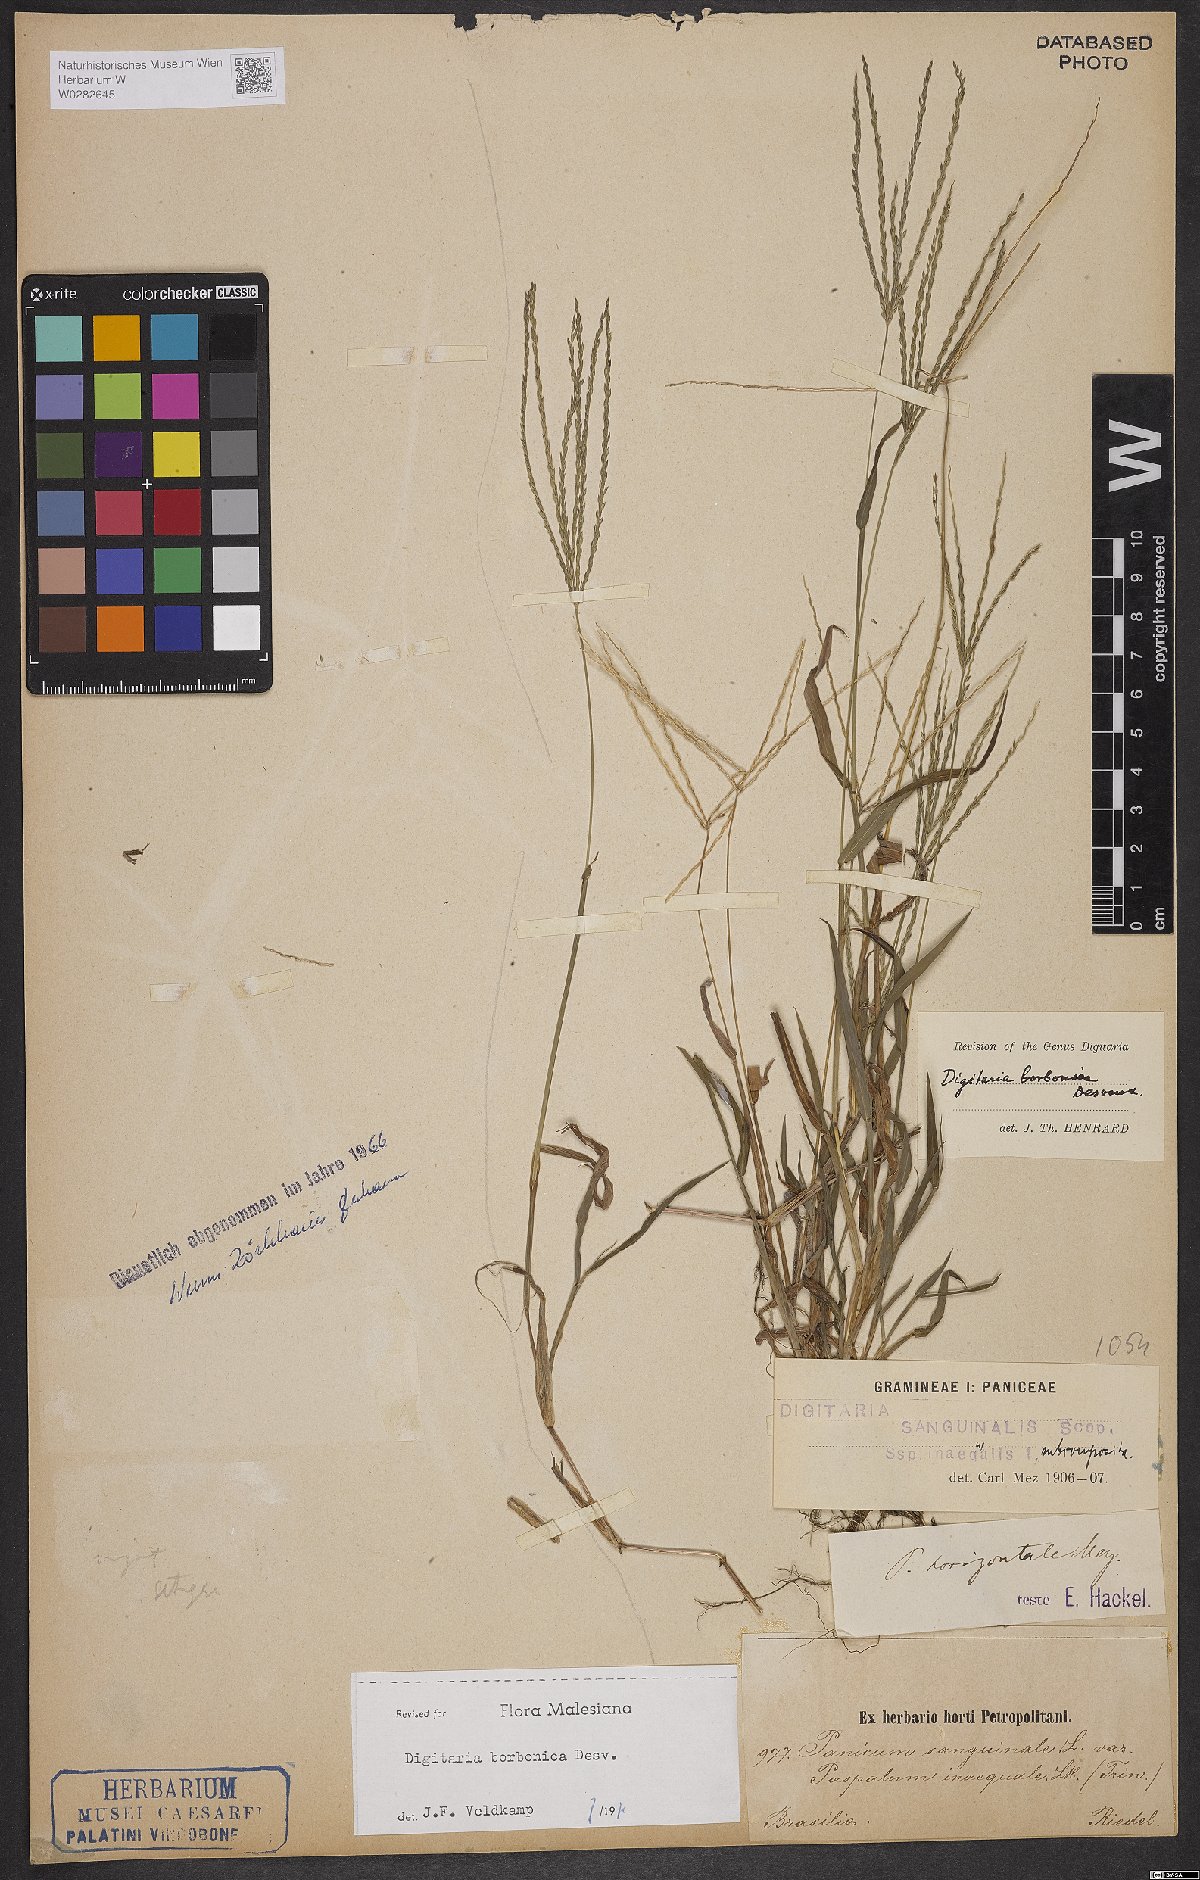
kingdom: Plantae
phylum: Tracheophyta
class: Liliopsida
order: Poales
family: Poaceae
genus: Digitaria
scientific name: Digitaria nuda
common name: Naked crabgrass
